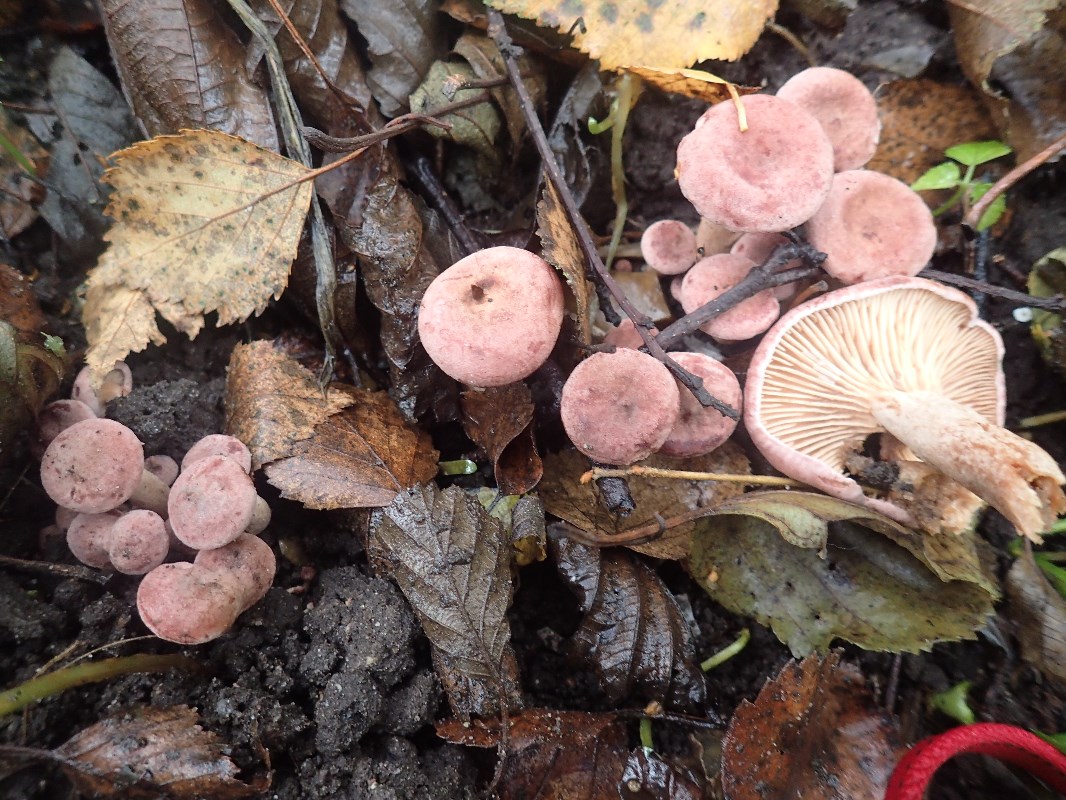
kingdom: Fungi
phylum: Basidiomycota
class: Agaricomycetes
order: Russulales
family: Russulaceae
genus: Lactarius
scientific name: Lactarius lilacinus
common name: lilla mælkehat
